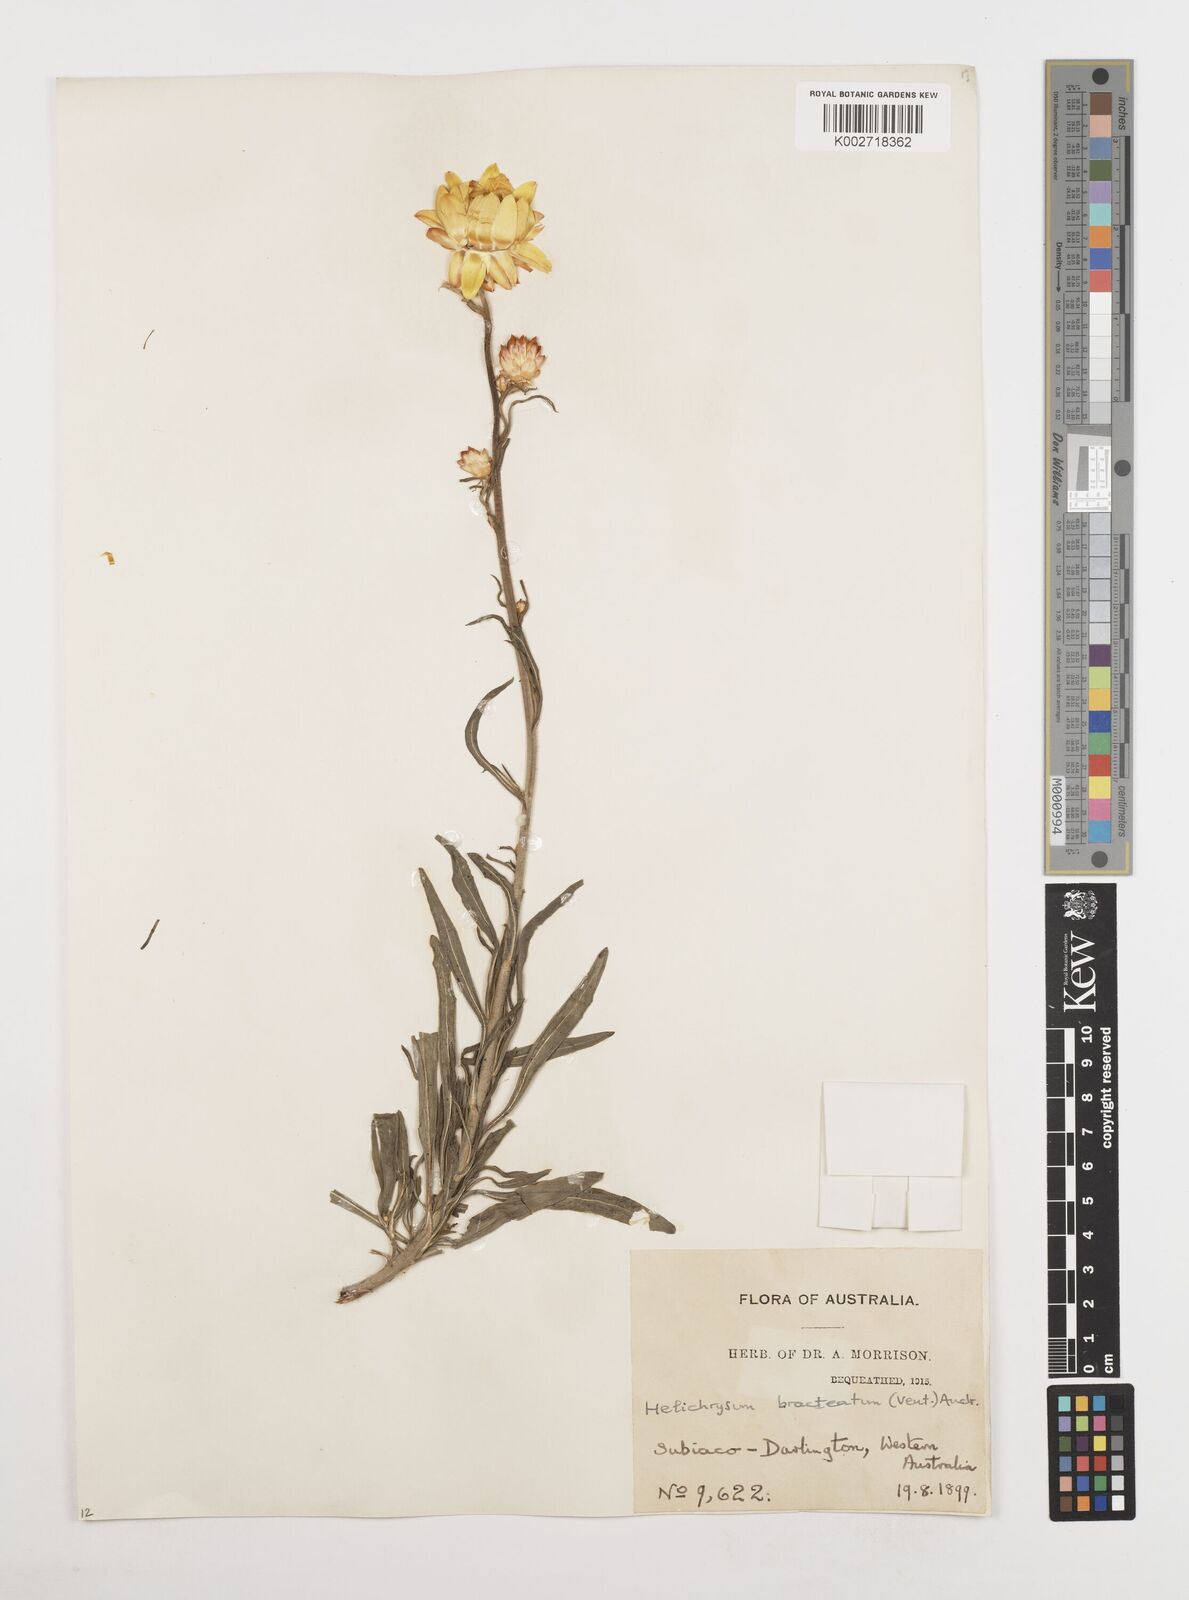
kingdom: Plantae
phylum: Tracheophyta
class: Magnoliopsida
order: Asterales
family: Asteraceae
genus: Xerochrysum
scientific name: Xerochrysum bracteatum
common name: Bracted strawflower
